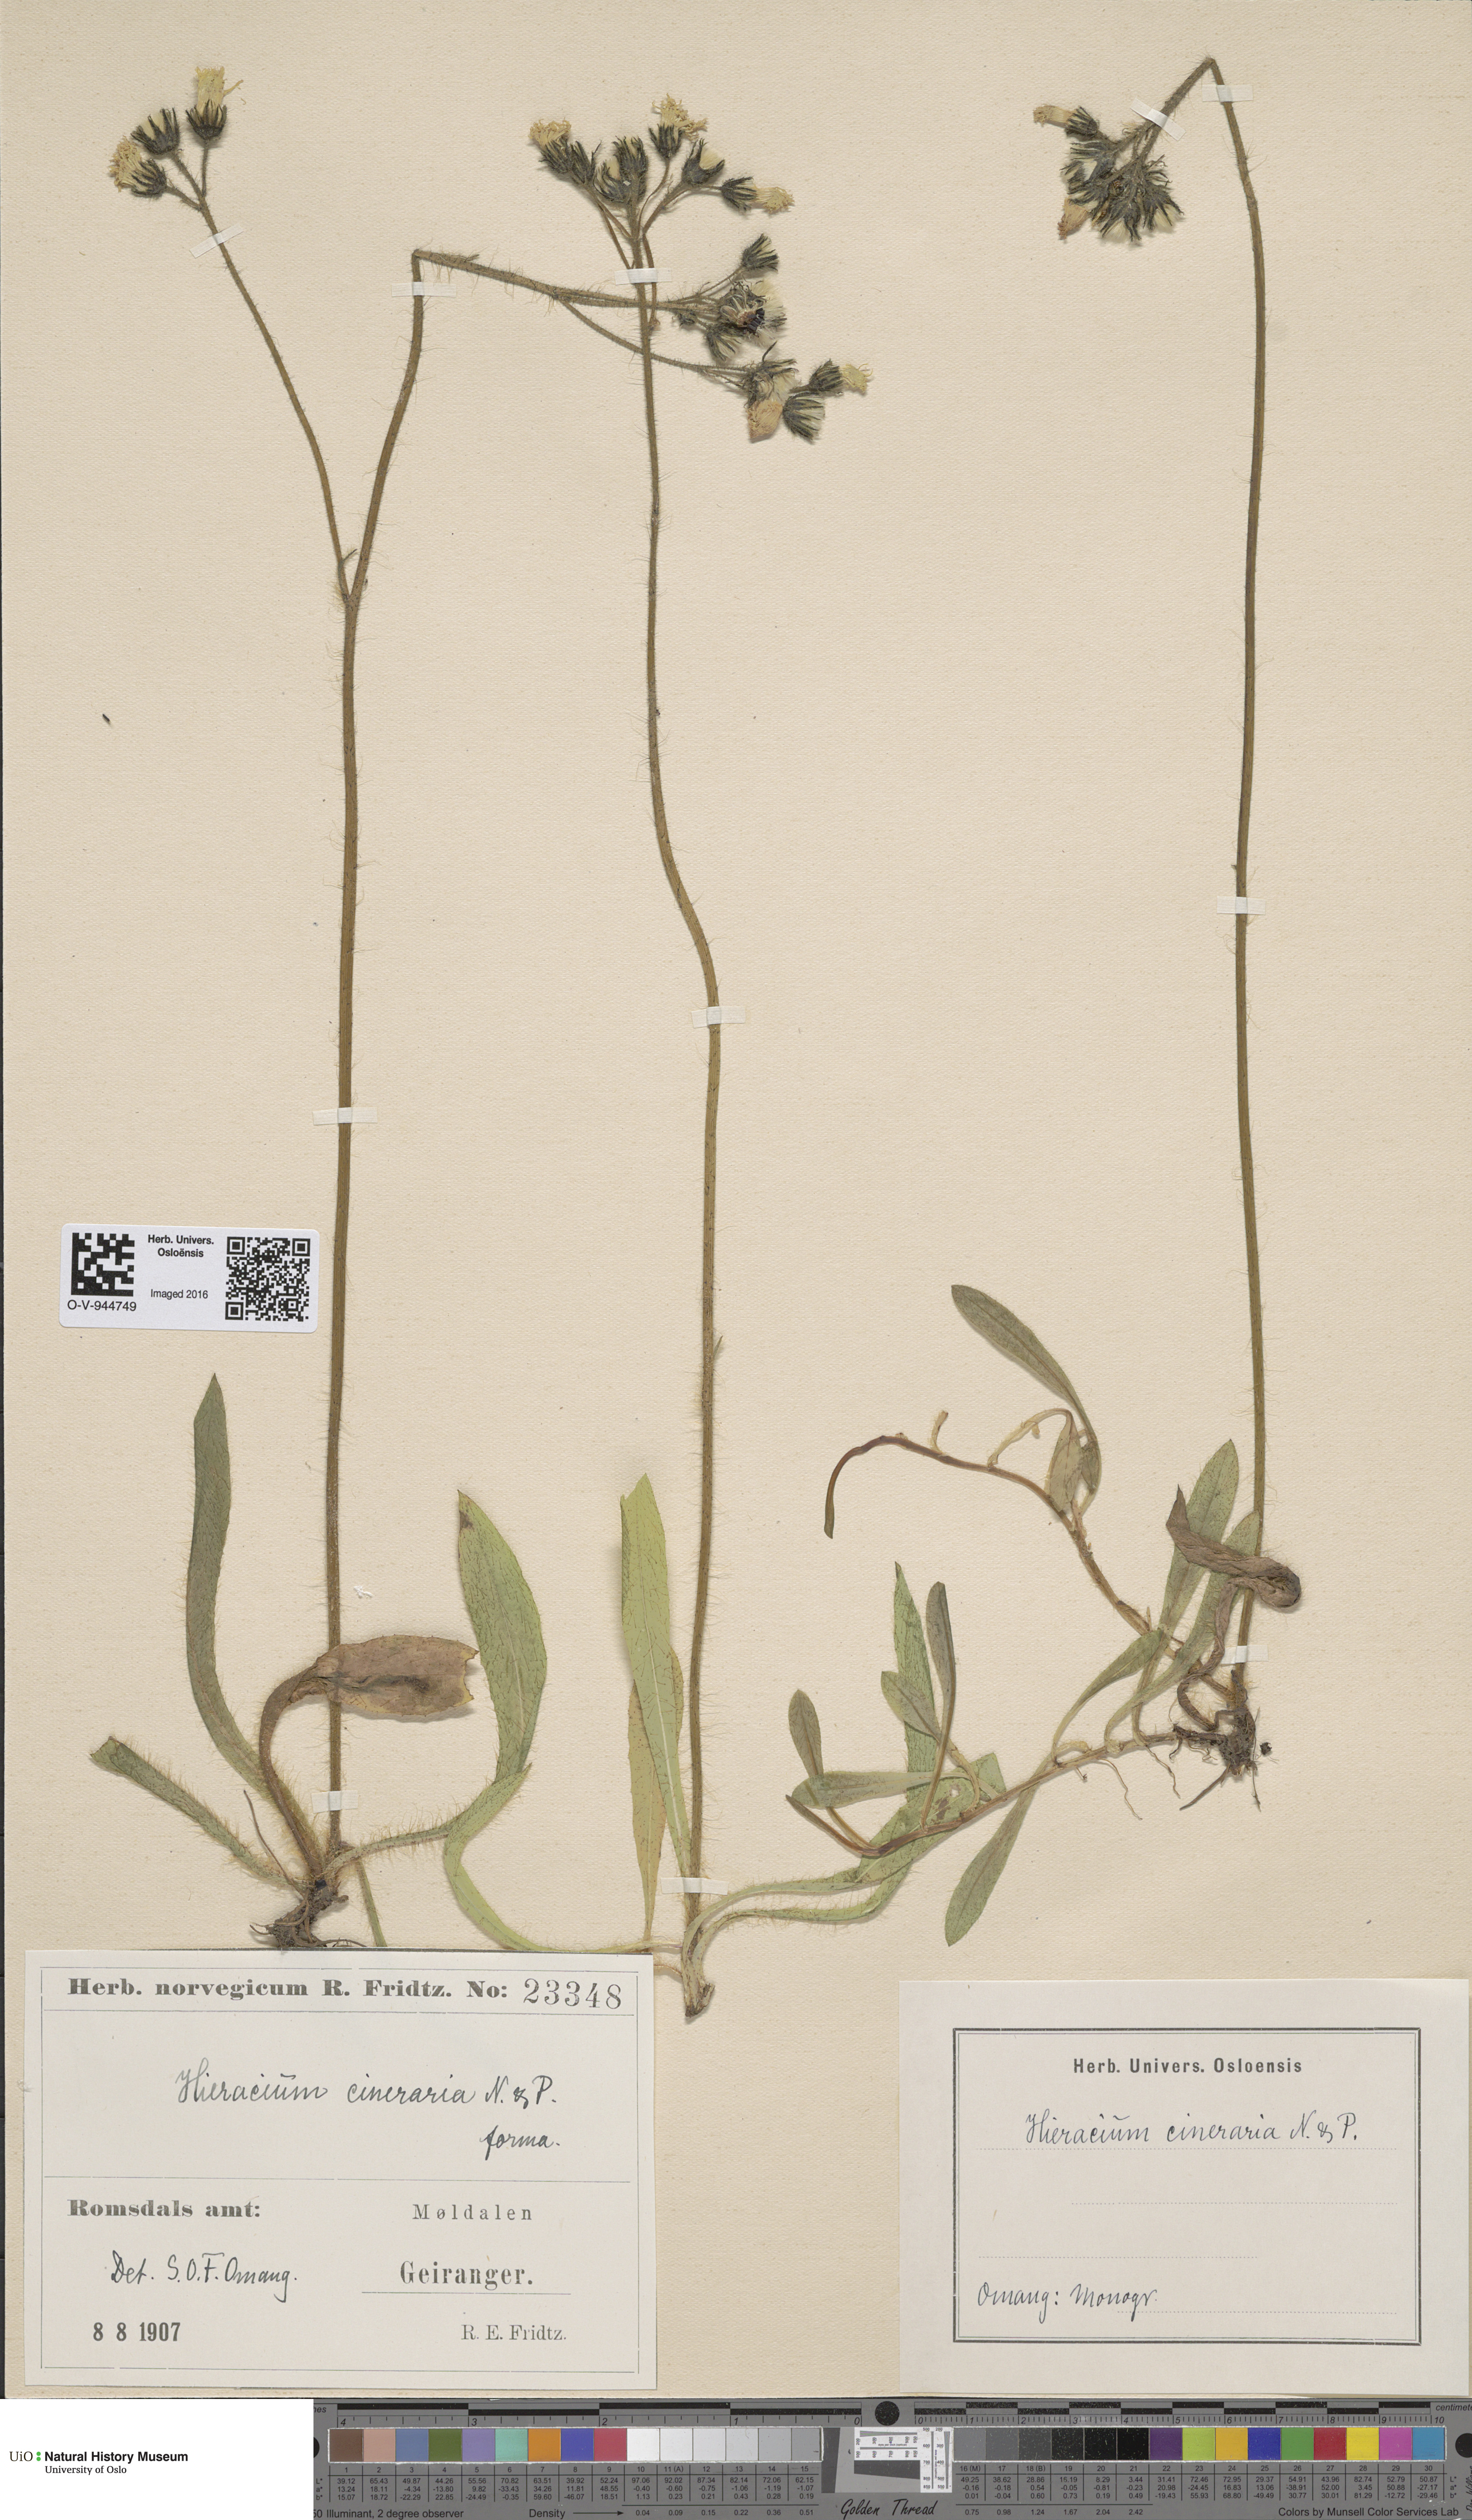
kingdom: Plantae
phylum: Tracheophyta
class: Magnoliopsida
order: Asterales
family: Asteraceae
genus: Pilosella
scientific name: Pilosella moechiadia
